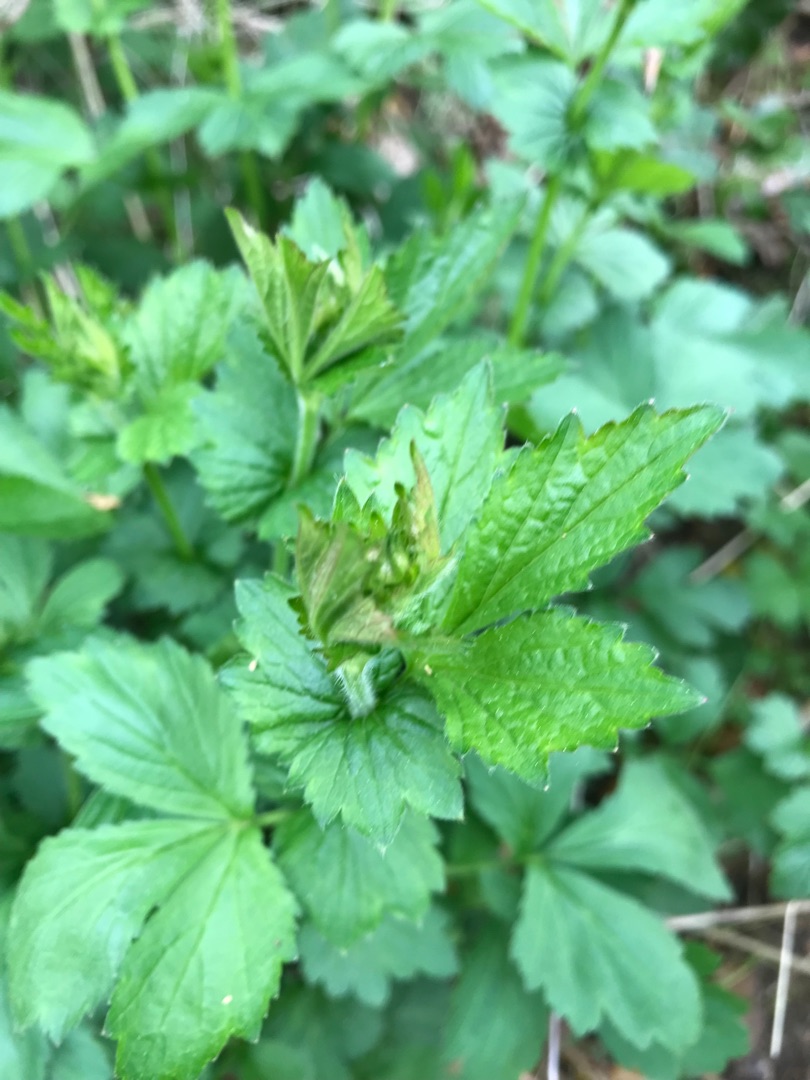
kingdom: Plantae
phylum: Tracheophyta
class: Magnoliopsida
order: Rosales
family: Rosaceae
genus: Geum
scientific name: Geum urbanum
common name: Feber-nellikerod
